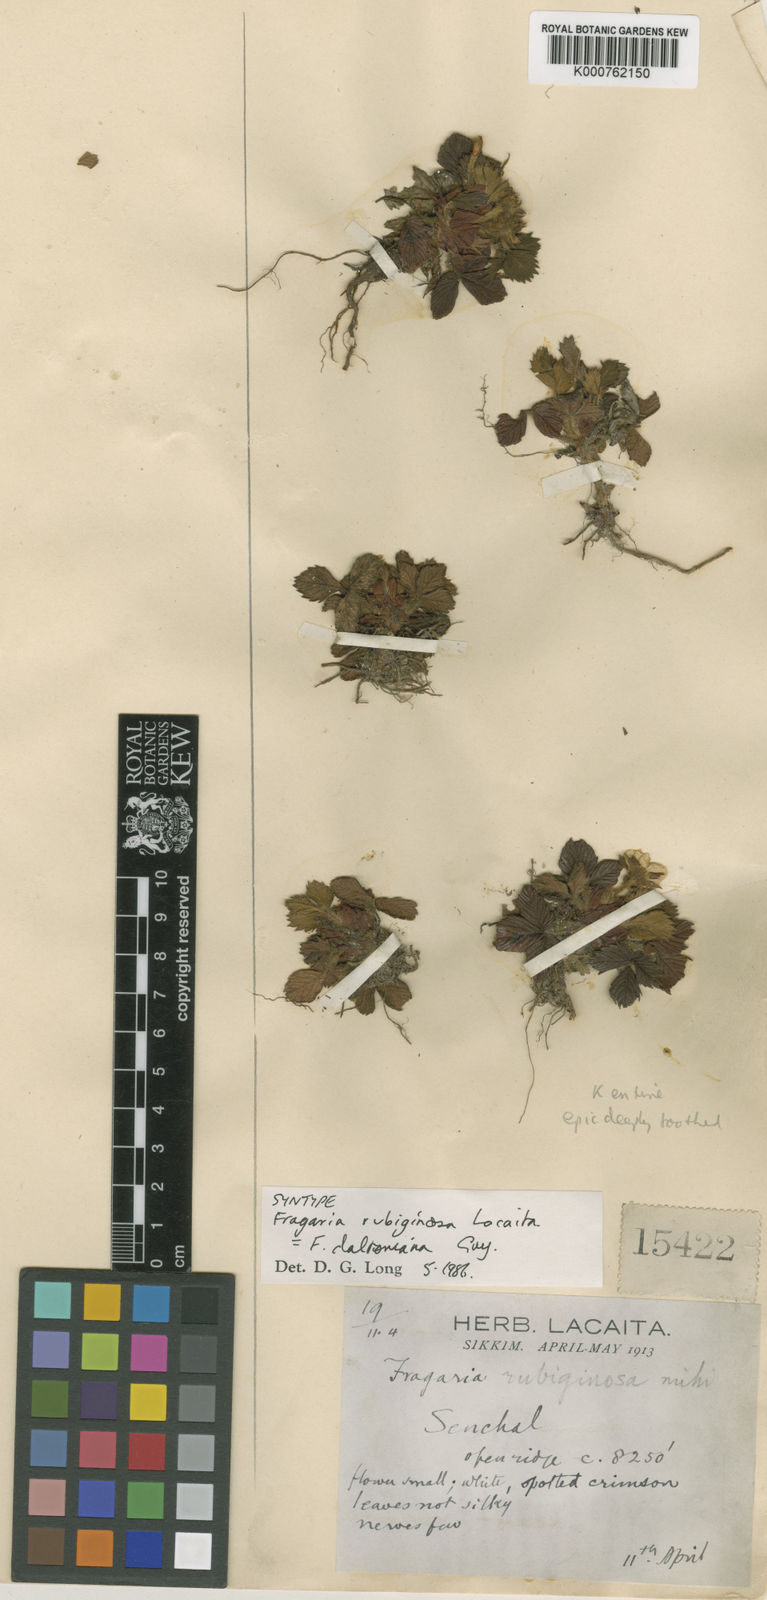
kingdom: Plantae
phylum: Tracheophyta
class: Magnoliopsida
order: Rosales
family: Rosaceae
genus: Fragaria
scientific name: Fragaria vesca
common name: Wild strawberry
